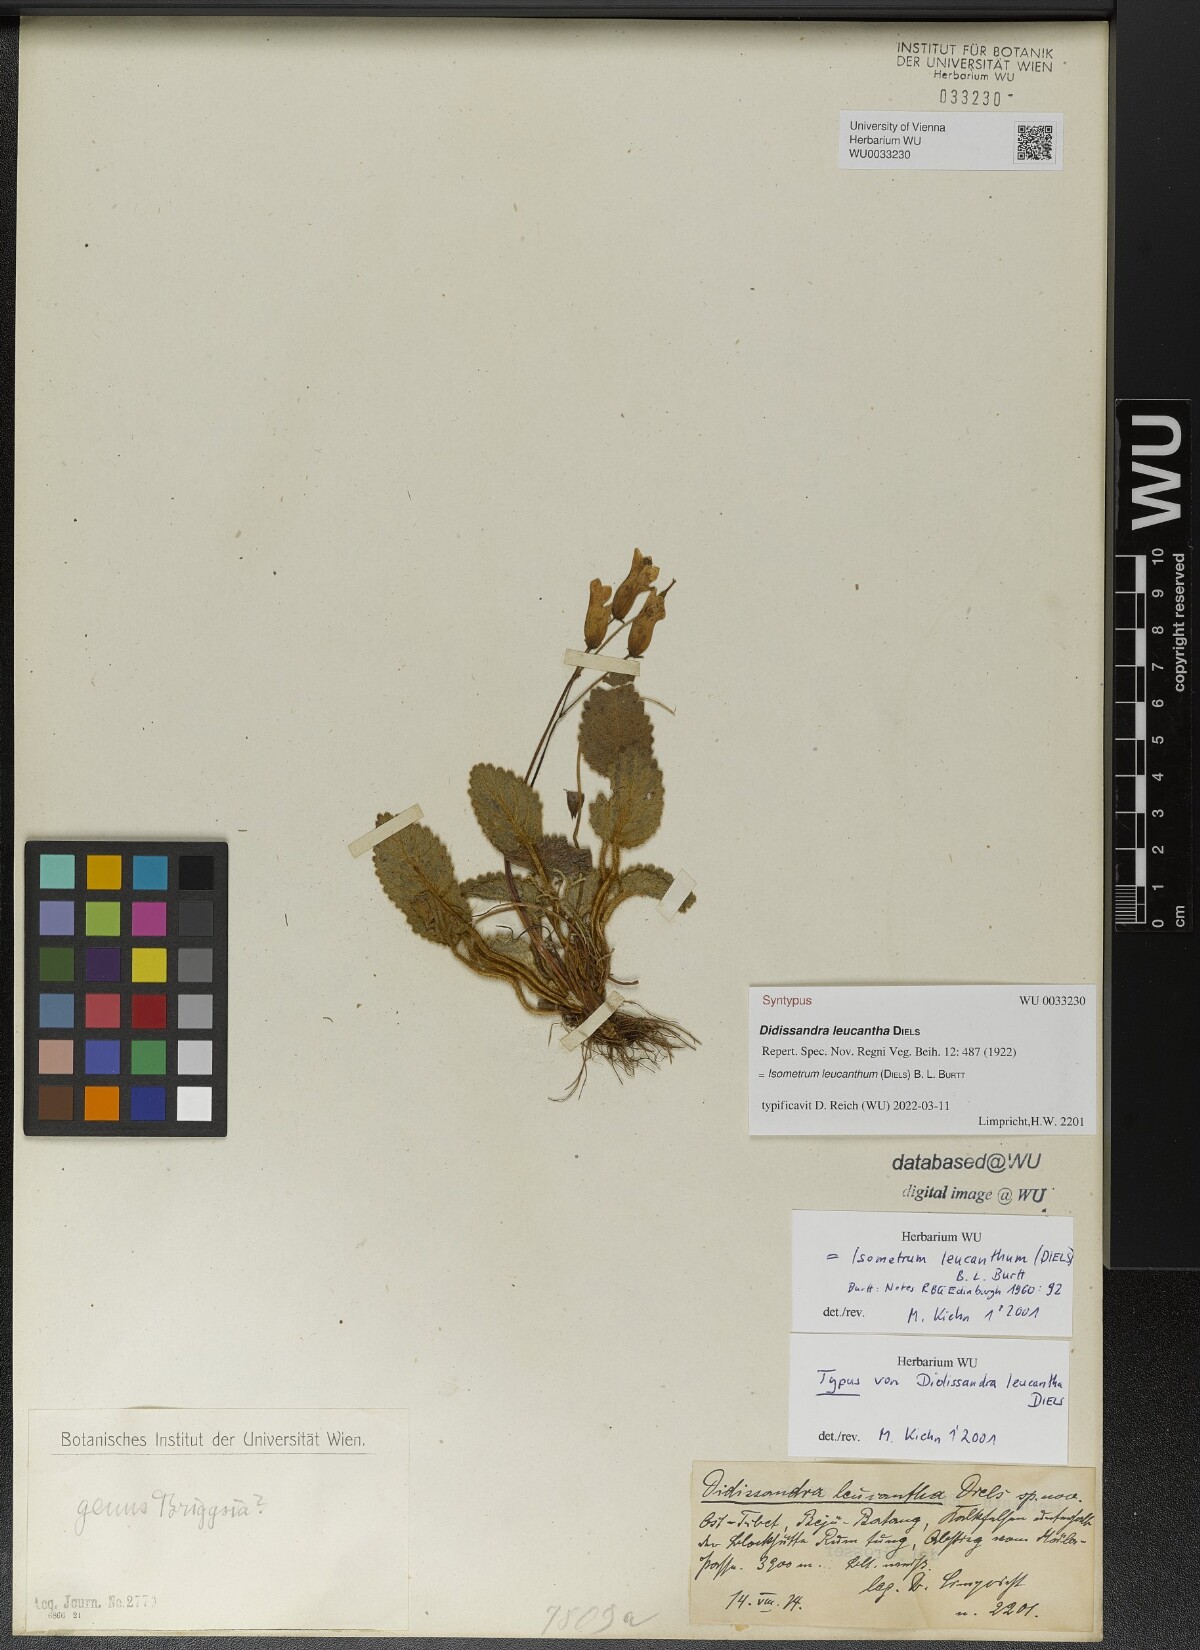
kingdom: Plantae
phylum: Tracheophyta
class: Magnoliopsida
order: Lamiales
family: Gesneriaceae
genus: Oreocharis
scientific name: Oreocharis leucantha
